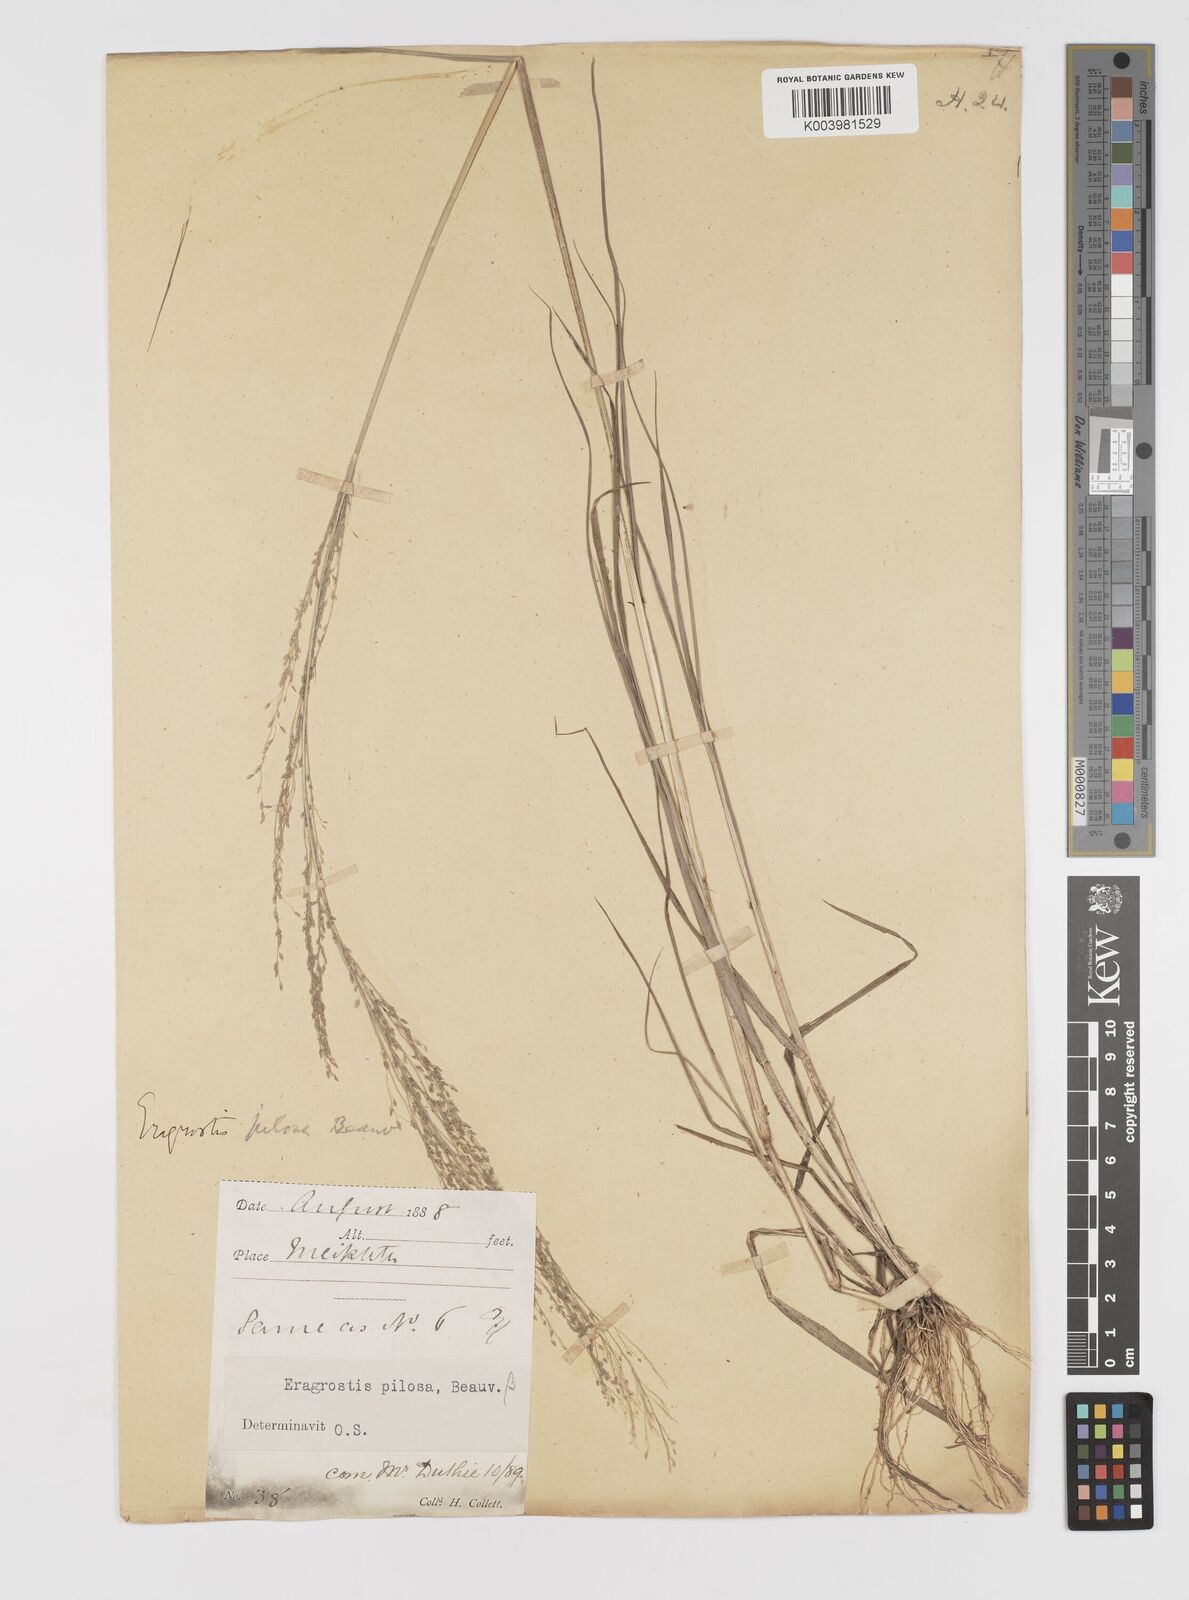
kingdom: Plantae
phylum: Tracheophyta
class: Liliopsida
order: Poales
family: Poaceae
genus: Eragrostis
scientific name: Eragrostis pilosa
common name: Indian lovegrass
